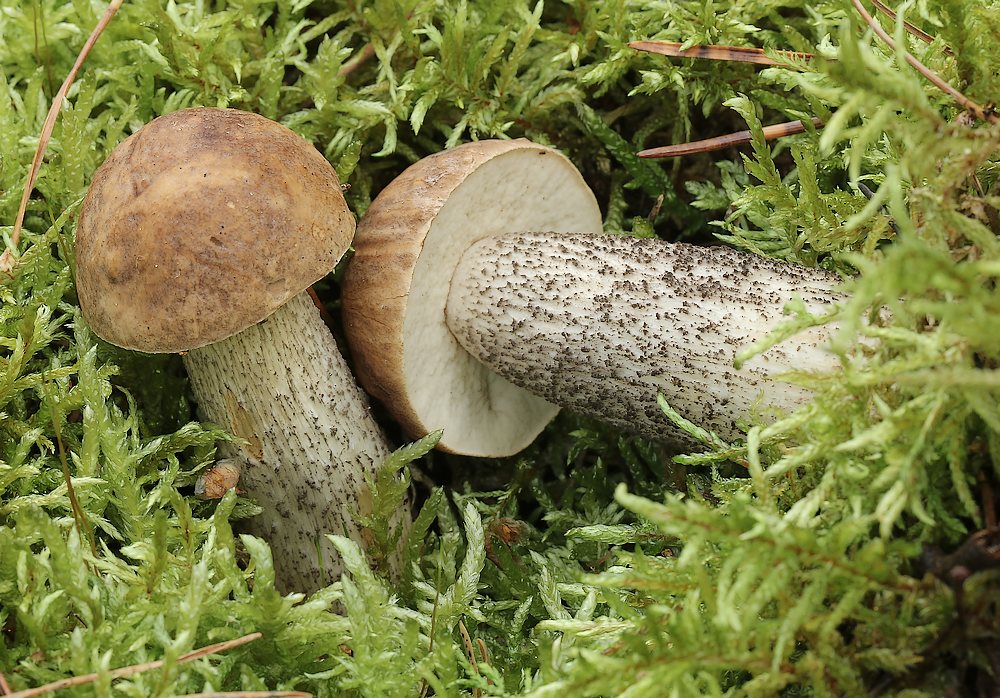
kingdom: Fungi
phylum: Basidiomycota
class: Agaricomycetes
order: Boletales
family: Boletaceae
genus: Leccinum
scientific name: Leccinum
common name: skælrørhat
